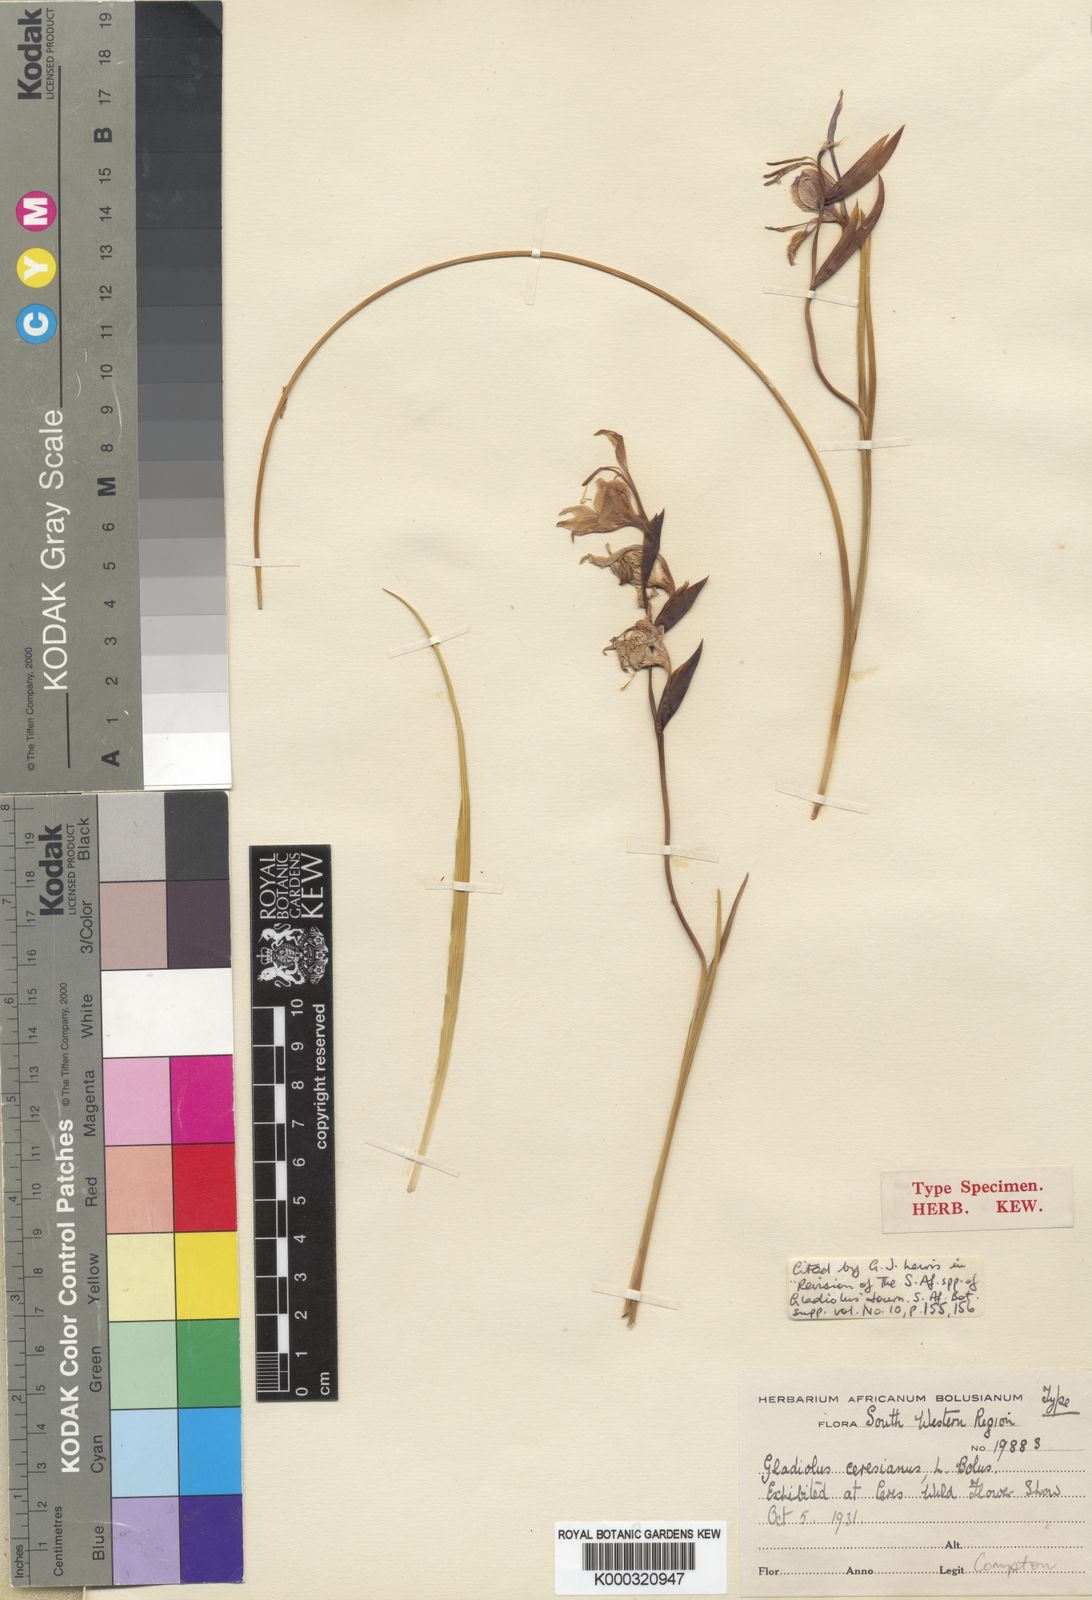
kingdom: Plantae
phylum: Tracheophyta
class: Liliopsida
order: Asparagales
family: Iridaceae
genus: Gladiolus
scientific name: Gladiolus ceresianus
